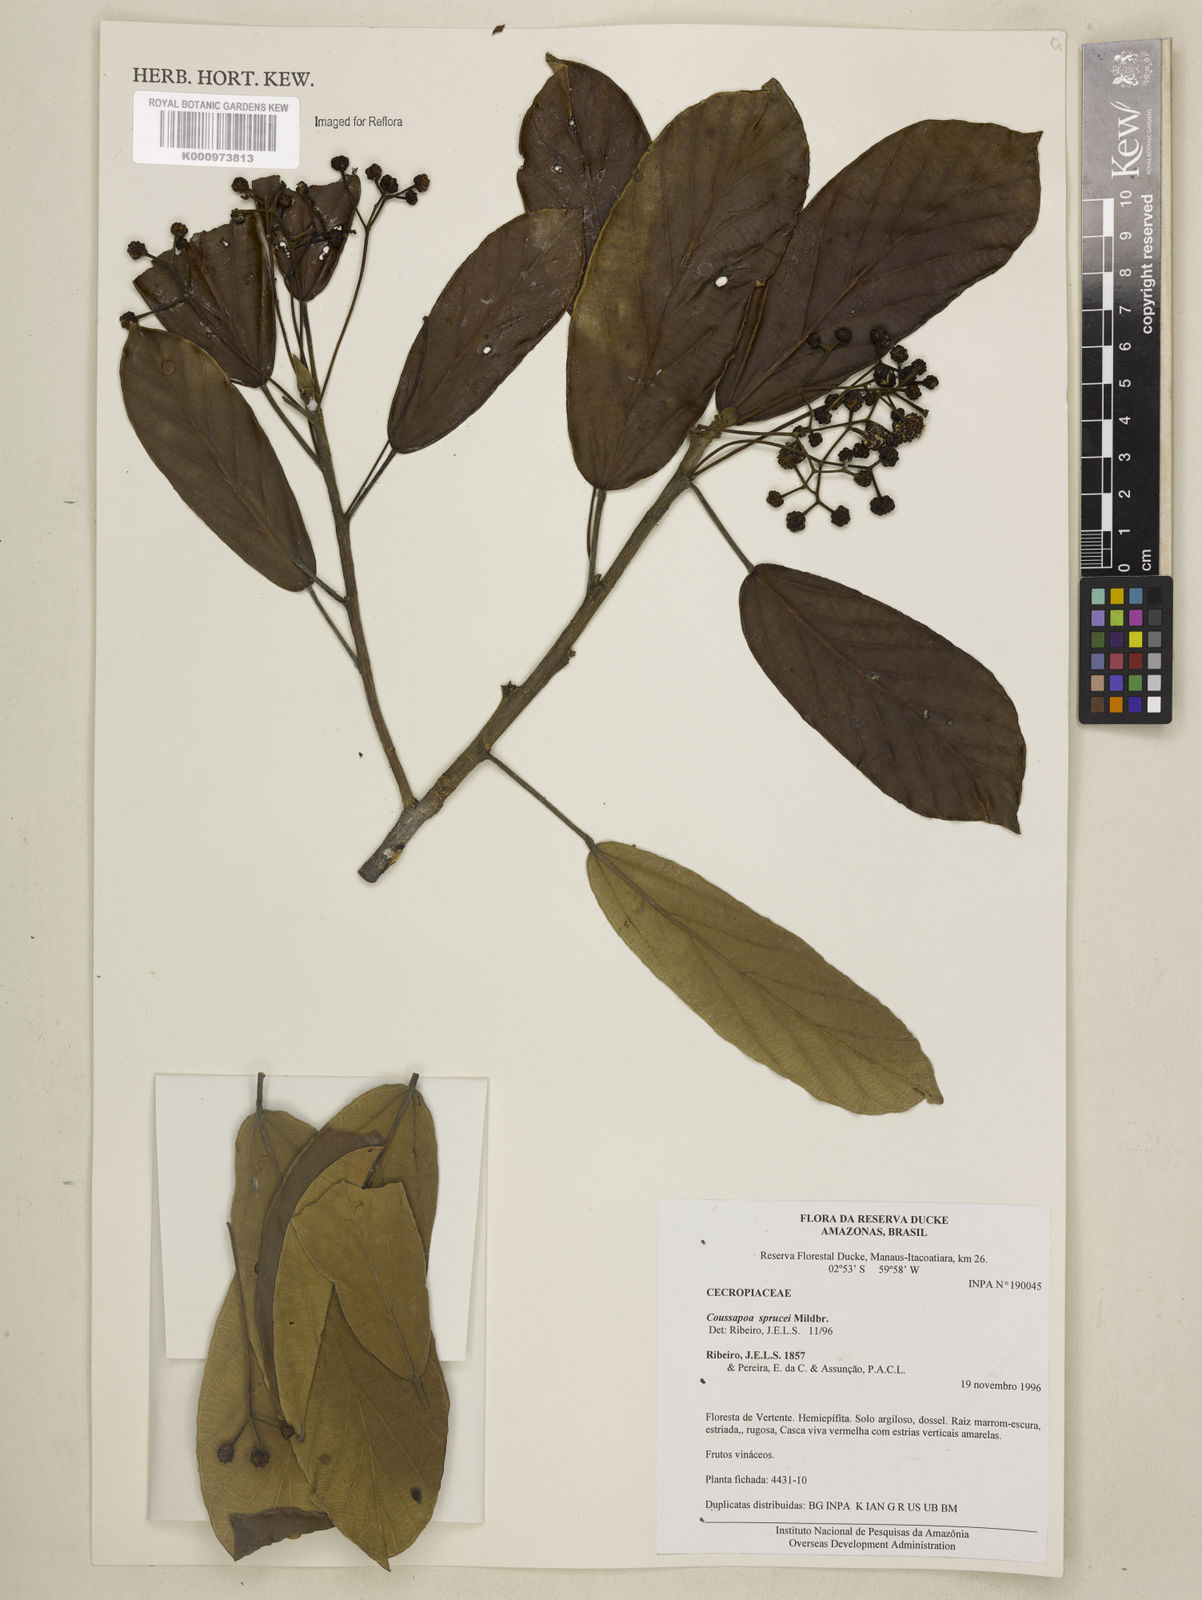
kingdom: Plantae
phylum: Tracheophyta
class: Magnoliopsida
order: Rosales
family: Urticaceae
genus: Coussapoa
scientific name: Coussapoa sprucei
